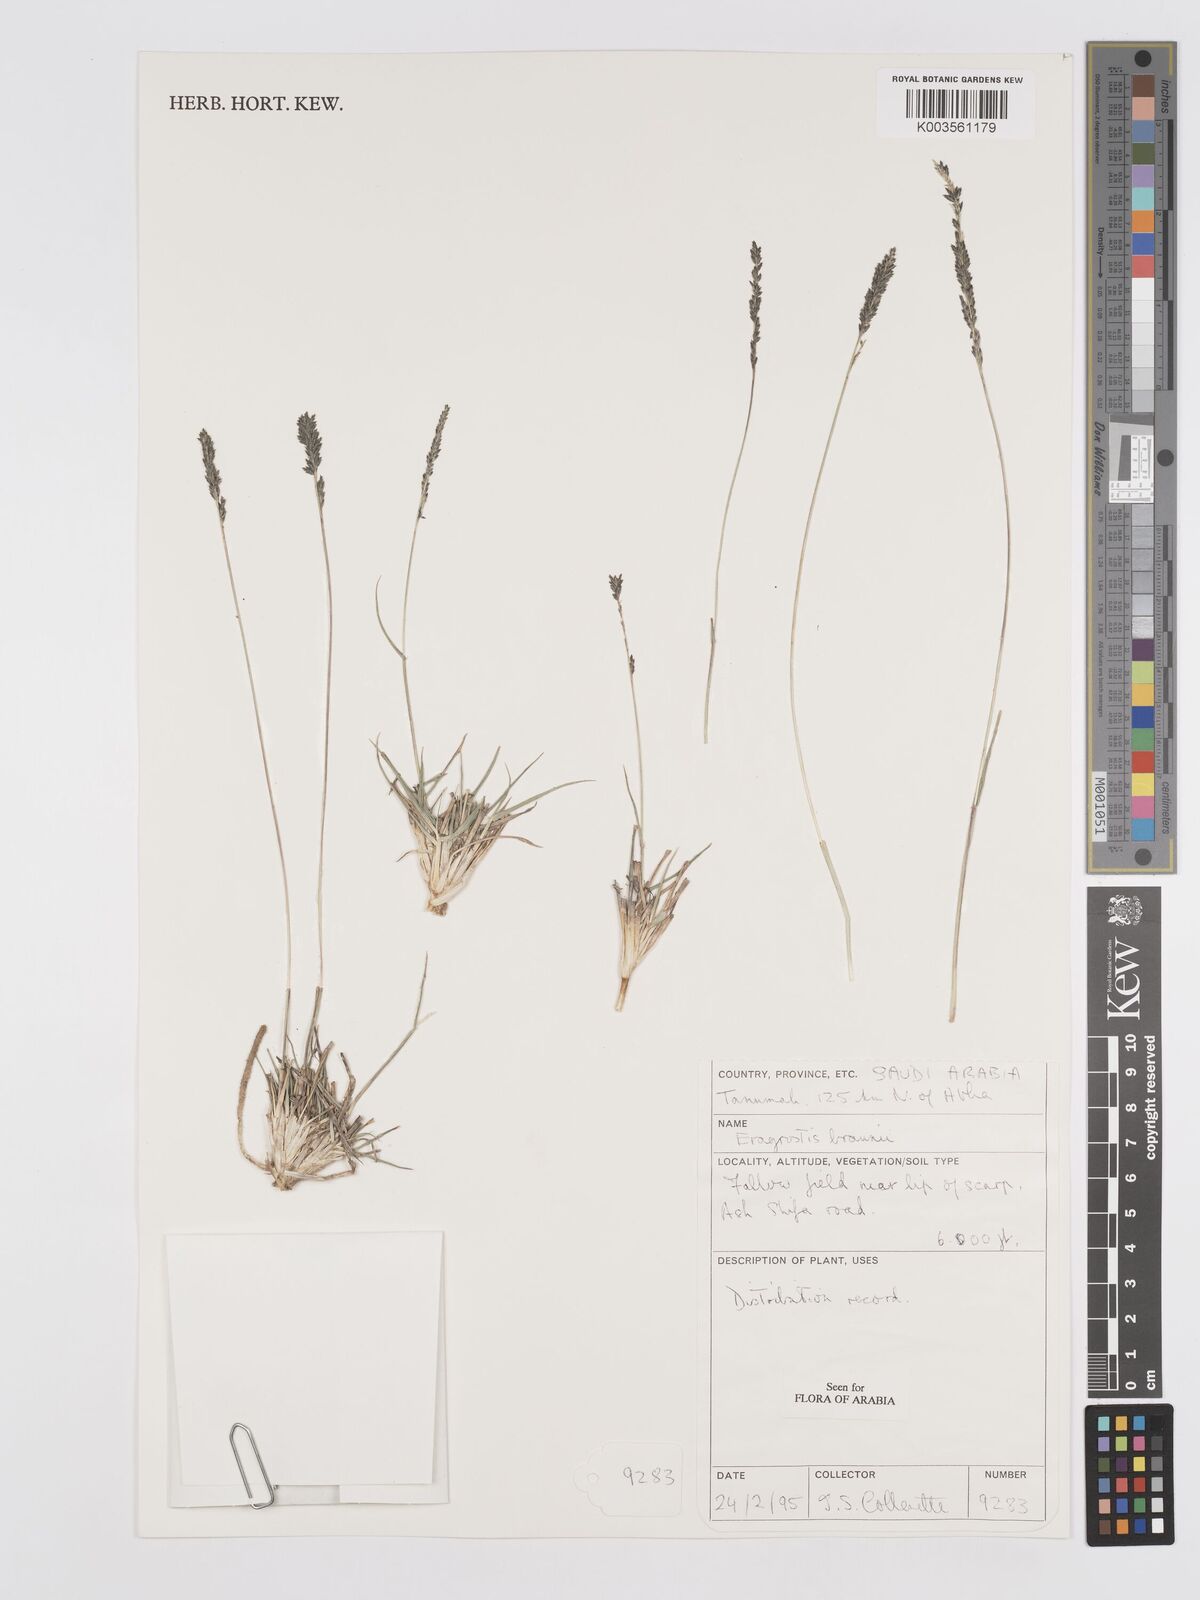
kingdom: Plantae
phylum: Tracheophyta
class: Liliopsida
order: Poales
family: Poaceae
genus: Eragrostis
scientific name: Eragrostis braunii
